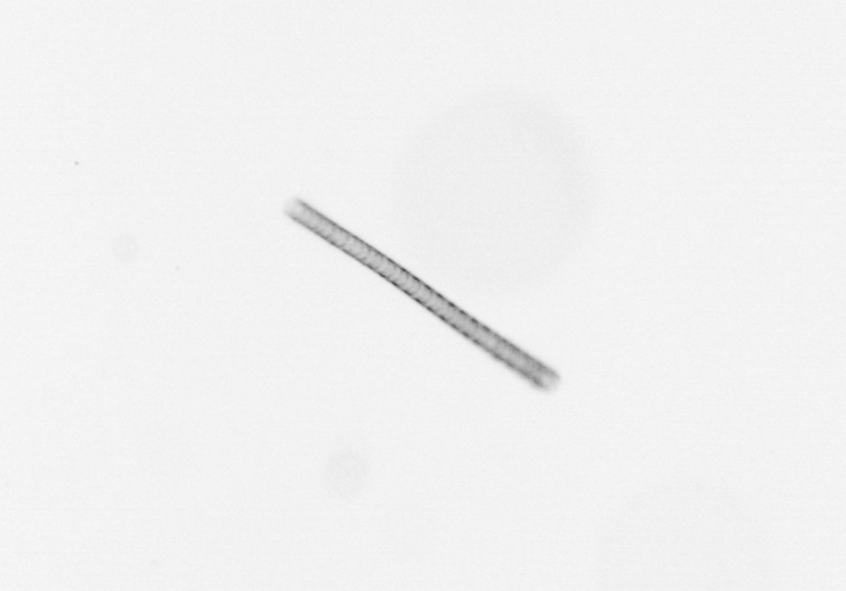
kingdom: Chromista
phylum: Ochrophyta
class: Bacillariophyceae
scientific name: Bacillariophyceae
